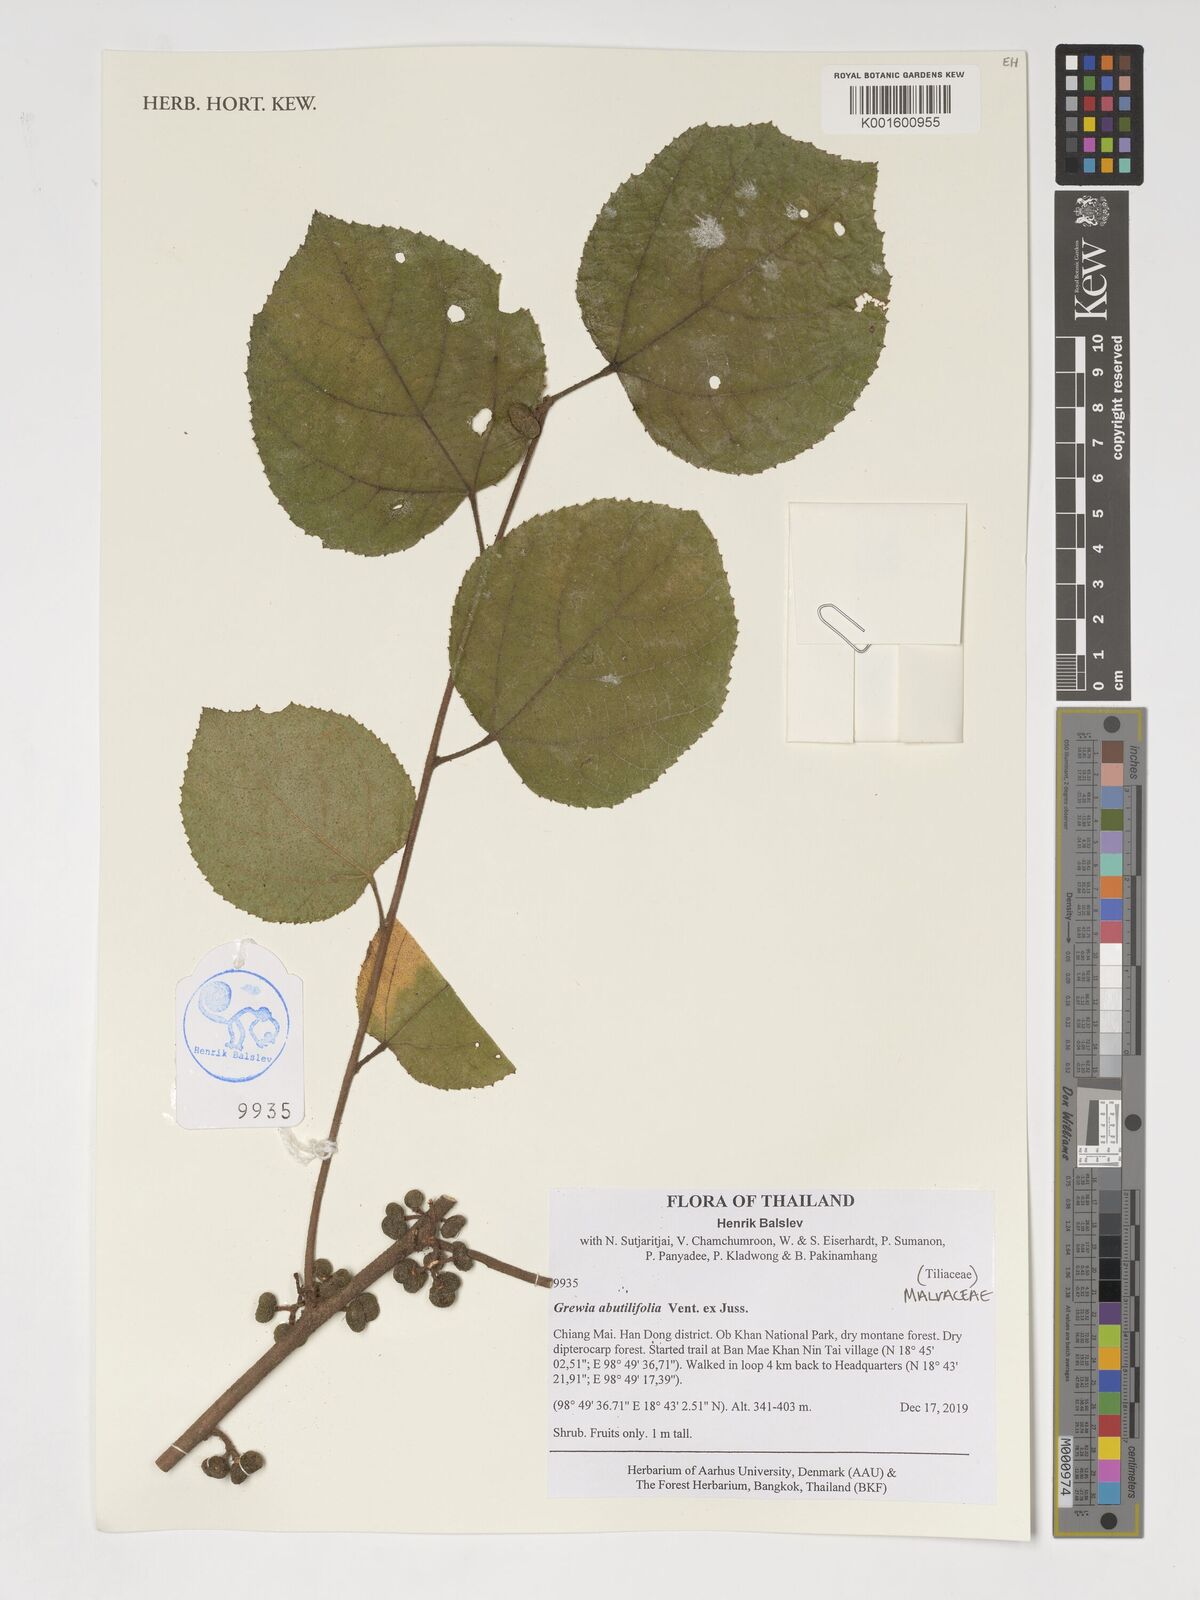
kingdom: Plantae
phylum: Tracheophyta
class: Magnoliopsida
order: Malvales
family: Malvaceae
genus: Grewia
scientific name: Grewia abutilifolia
